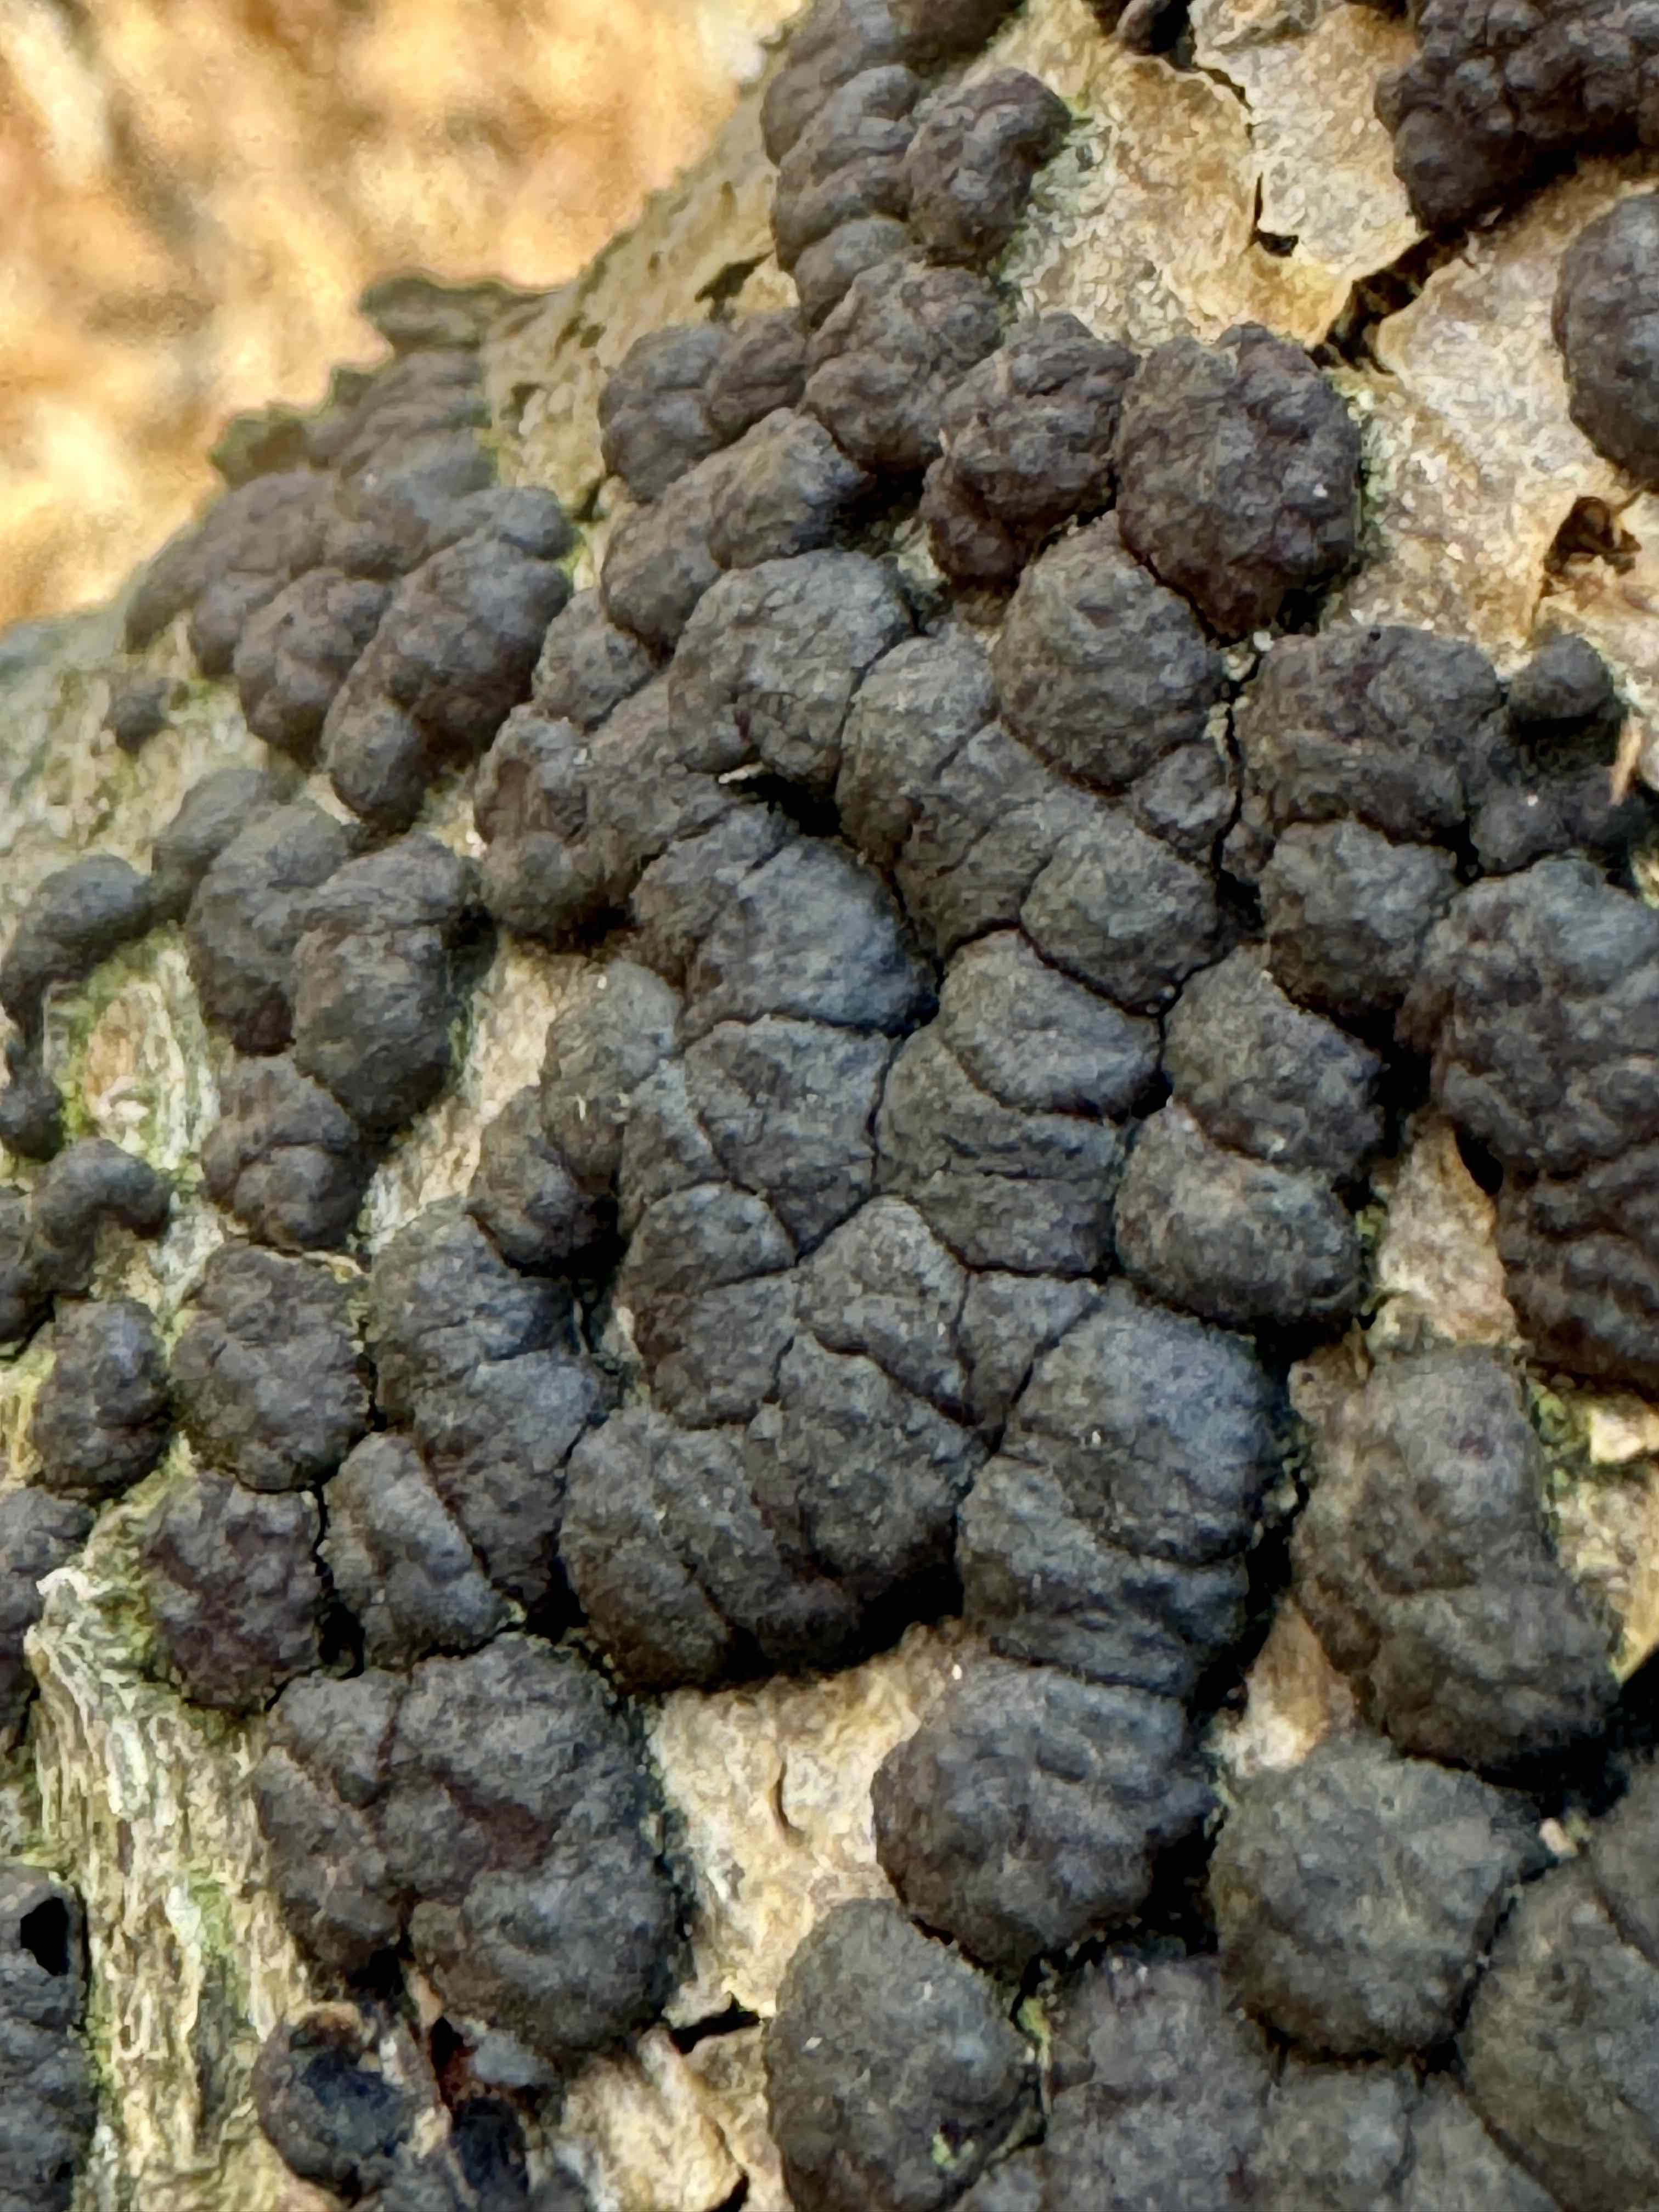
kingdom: Fungi
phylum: Ascomycota
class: Sordariomycetes
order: Xylariales
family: Hypoxylaceae
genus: Jackrogersella
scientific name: Jackrogersella cohaerens
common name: sammenflydende kulbær
